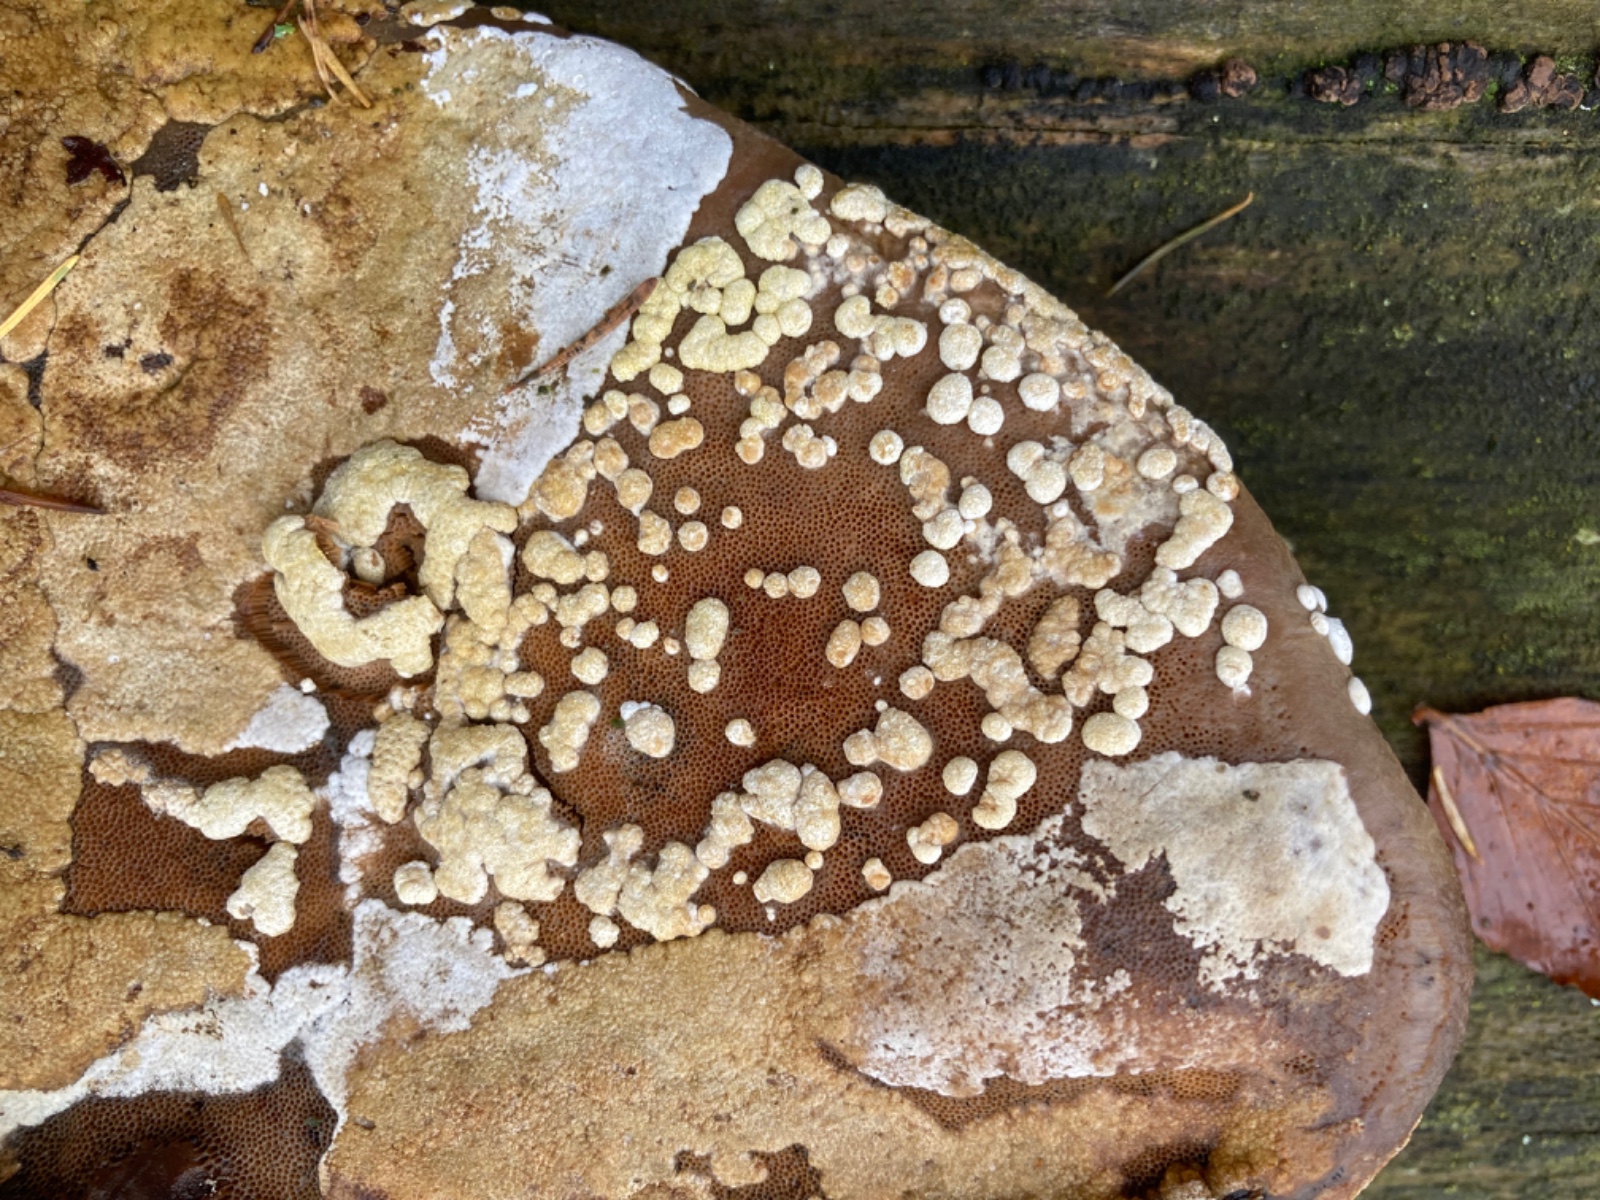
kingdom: Fungi
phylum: Ascomycota
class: Sordariomycetes
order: Hypocreales
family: Hypocreaceae
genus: Trichoderma
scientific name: Trichoderma pulvinatum
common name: snyltende kødkerne
